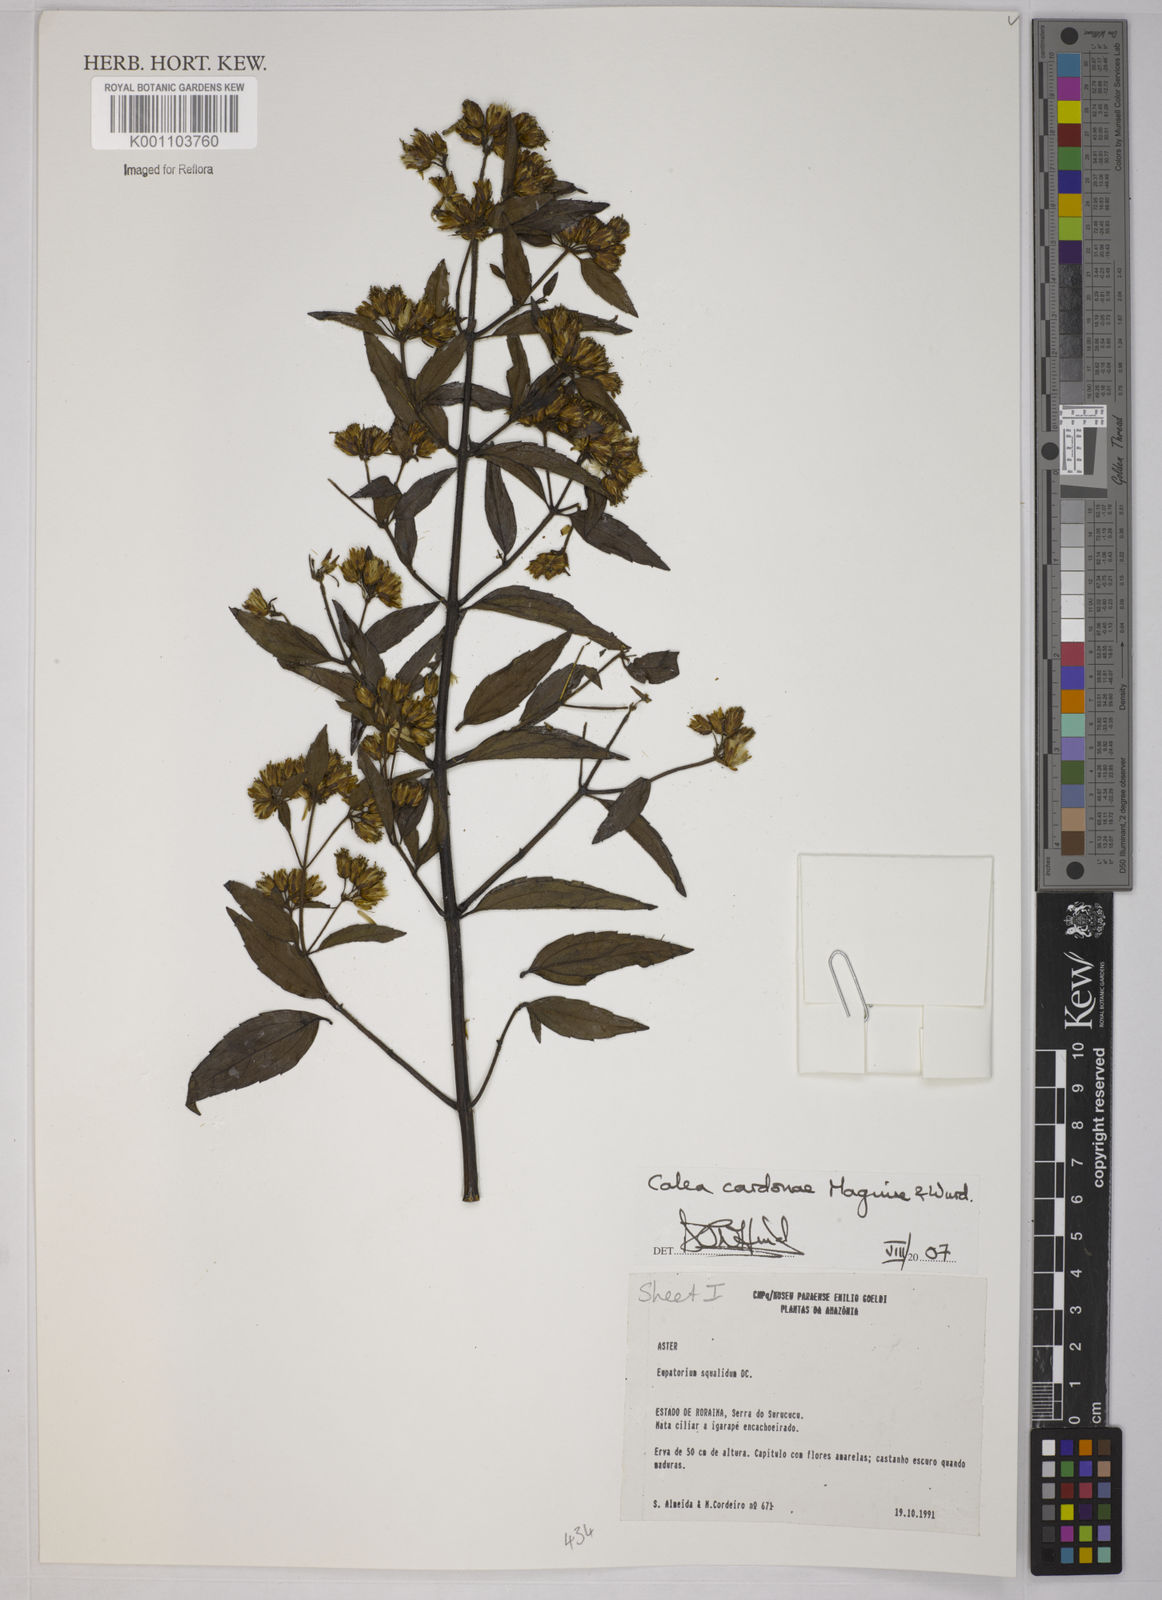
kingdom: Plantae
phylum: Tracheophyta
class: Magnoliopsida
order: Asterales
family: Asteraceae
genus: Calea
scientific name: Calea lucidivenia
